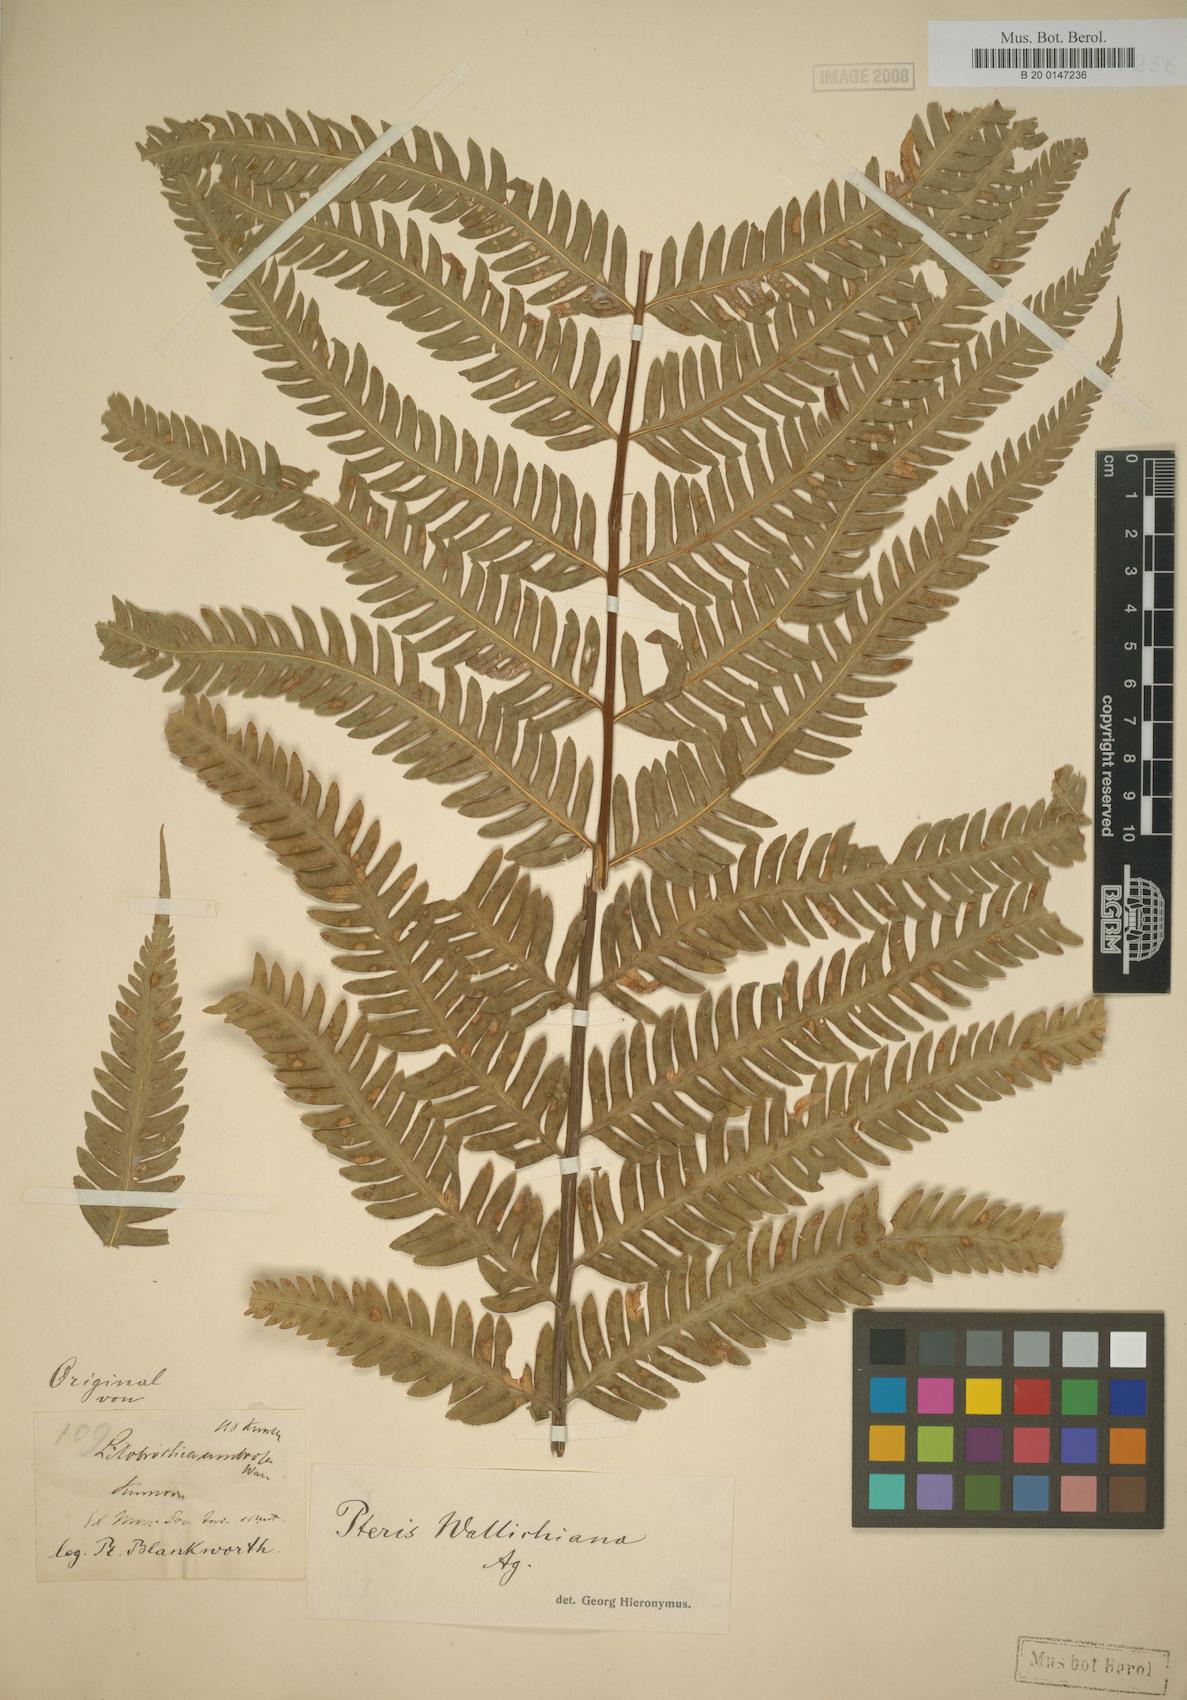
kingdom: Plantae
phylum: Tracheophyta
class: Polypodiopsida
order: Polypodiales
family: Pteridaceae
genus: Pteris
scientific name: Pteris wallichiana
